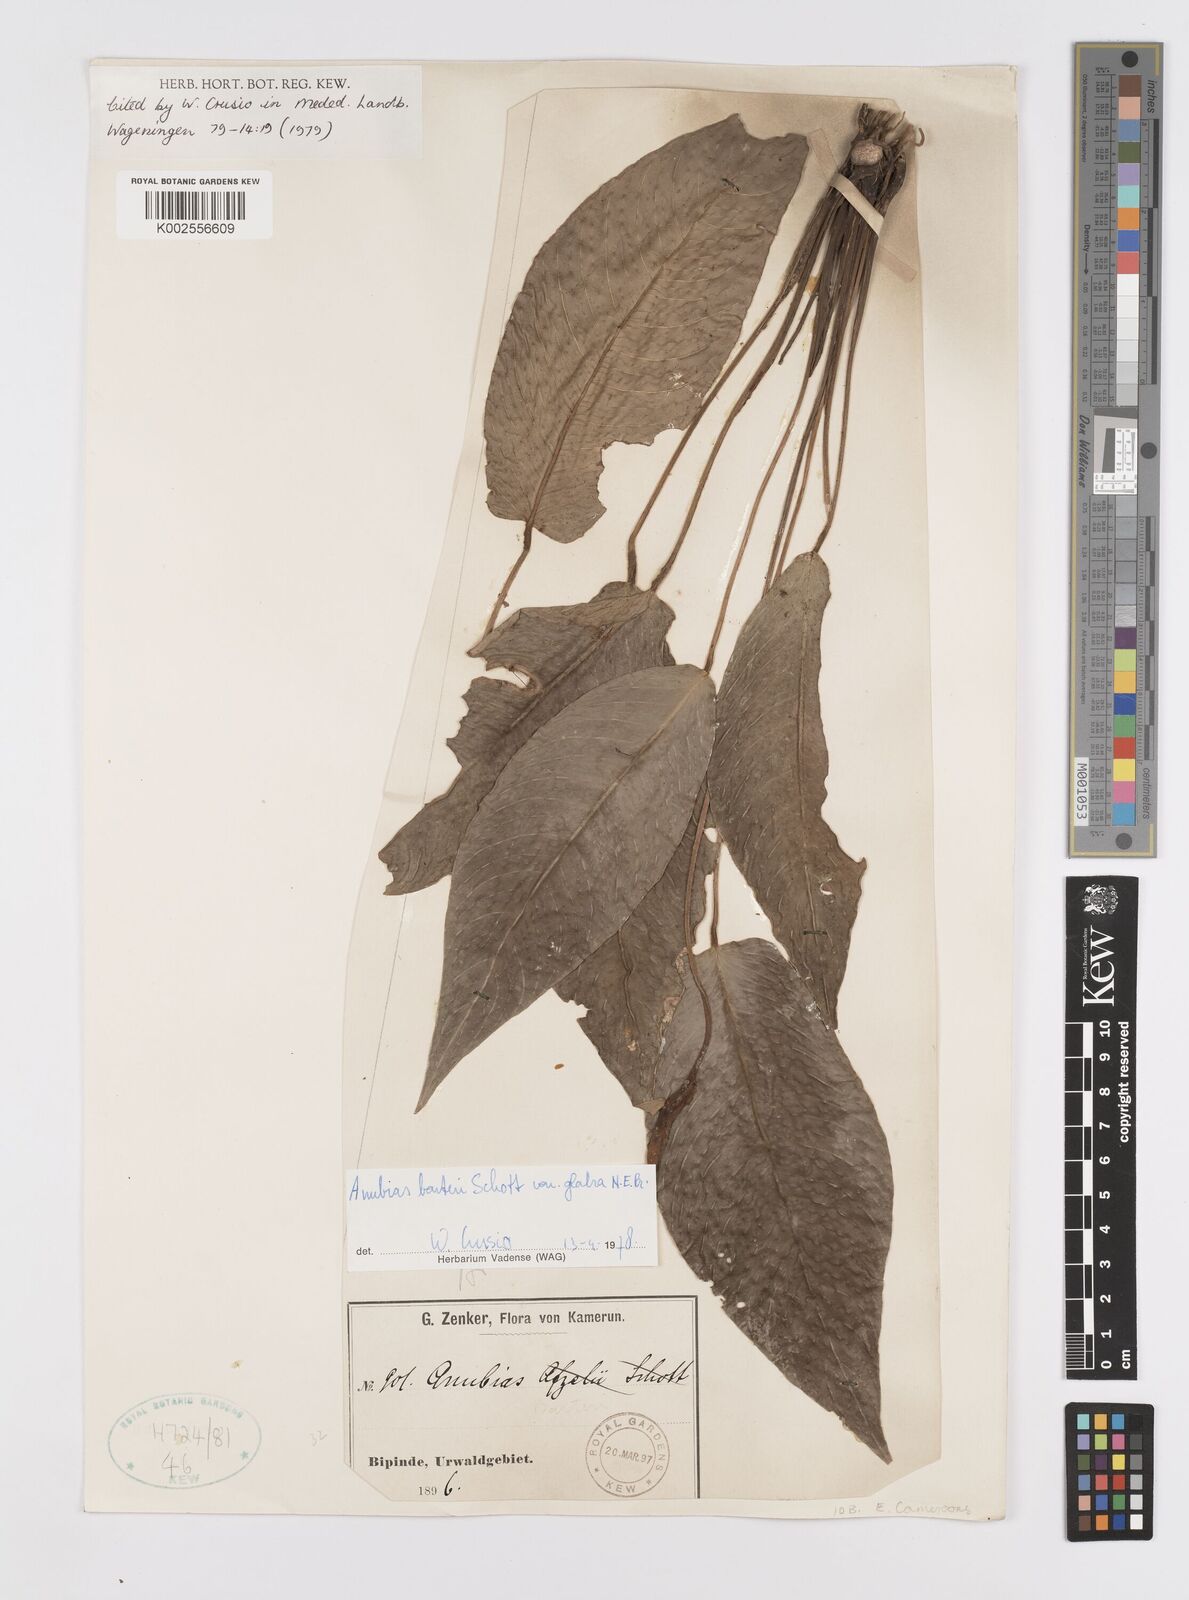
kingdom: Plantae
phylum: Tracheophyta
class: Liliopsida
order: Alismatales
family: Araceae
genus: Anubias
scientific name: Anubias barteri
